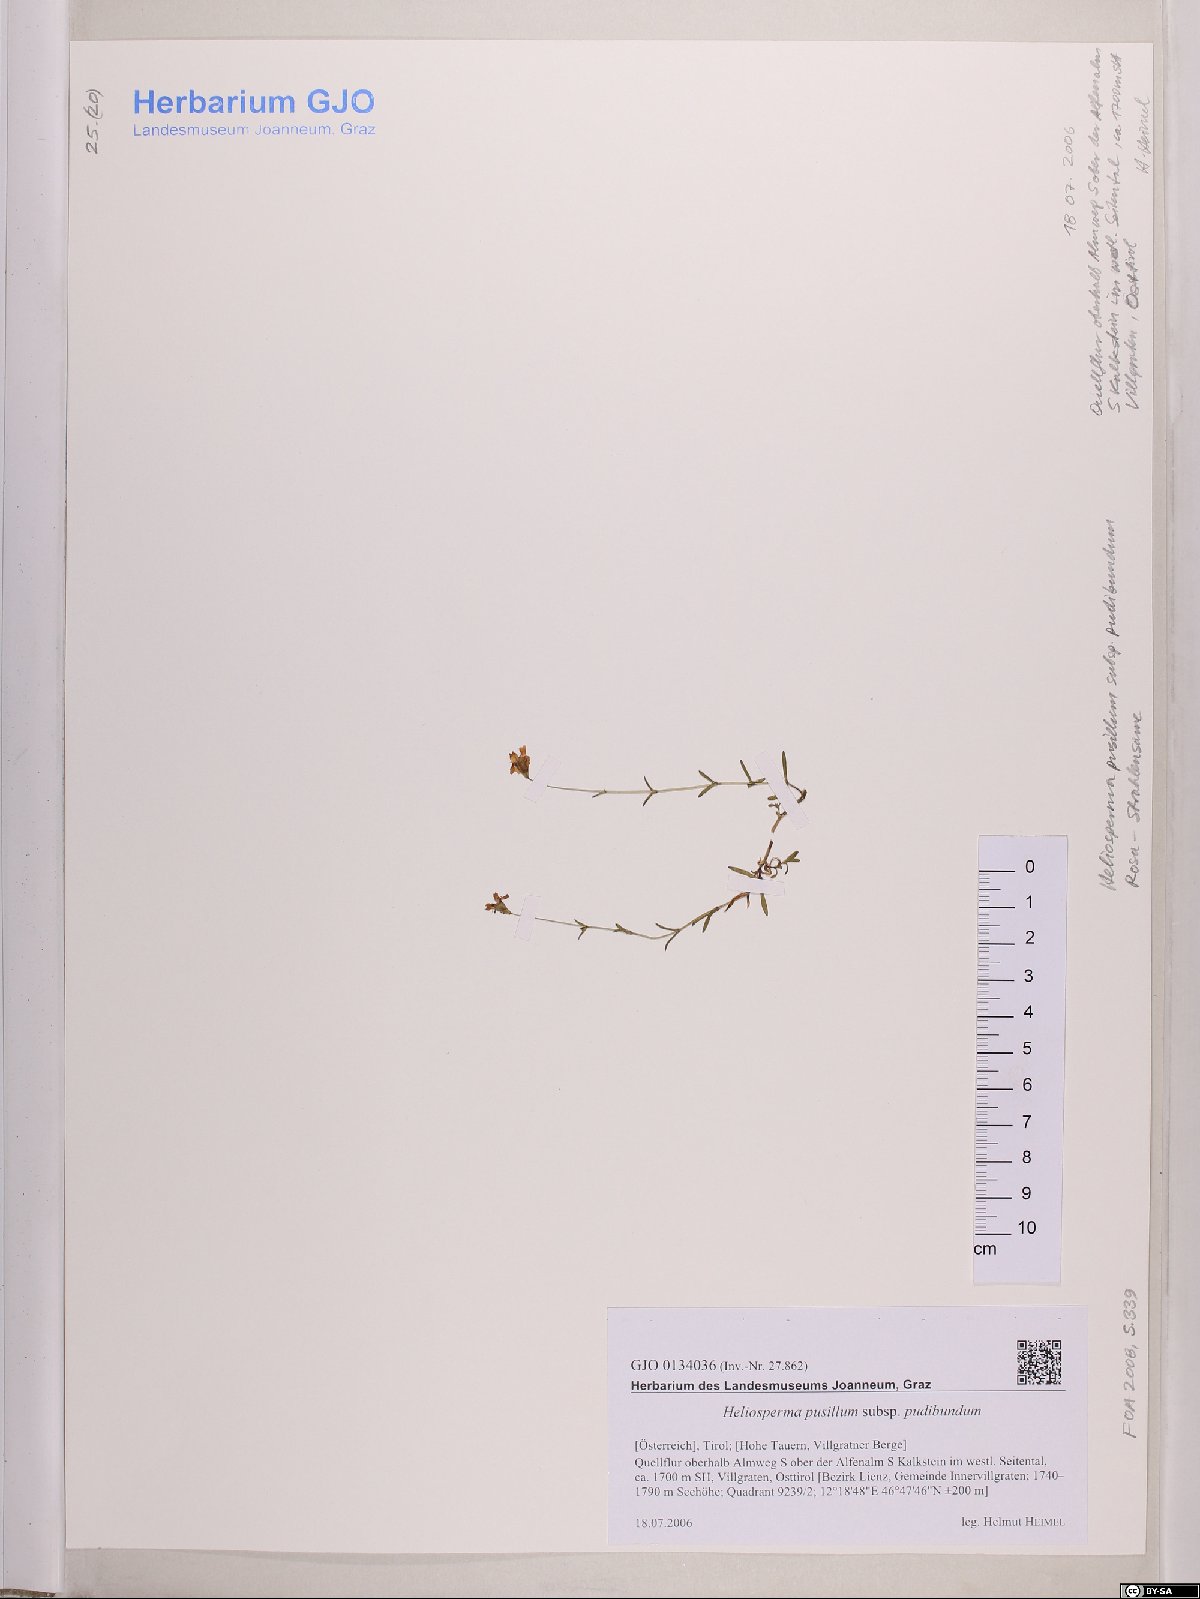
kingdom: Plantae
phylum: Tracheophyta
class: Magnoliopsida
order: Caryophyllales
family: Caryophyllaceae
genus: Heliosperma
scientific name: Heliosperma pudibundum
